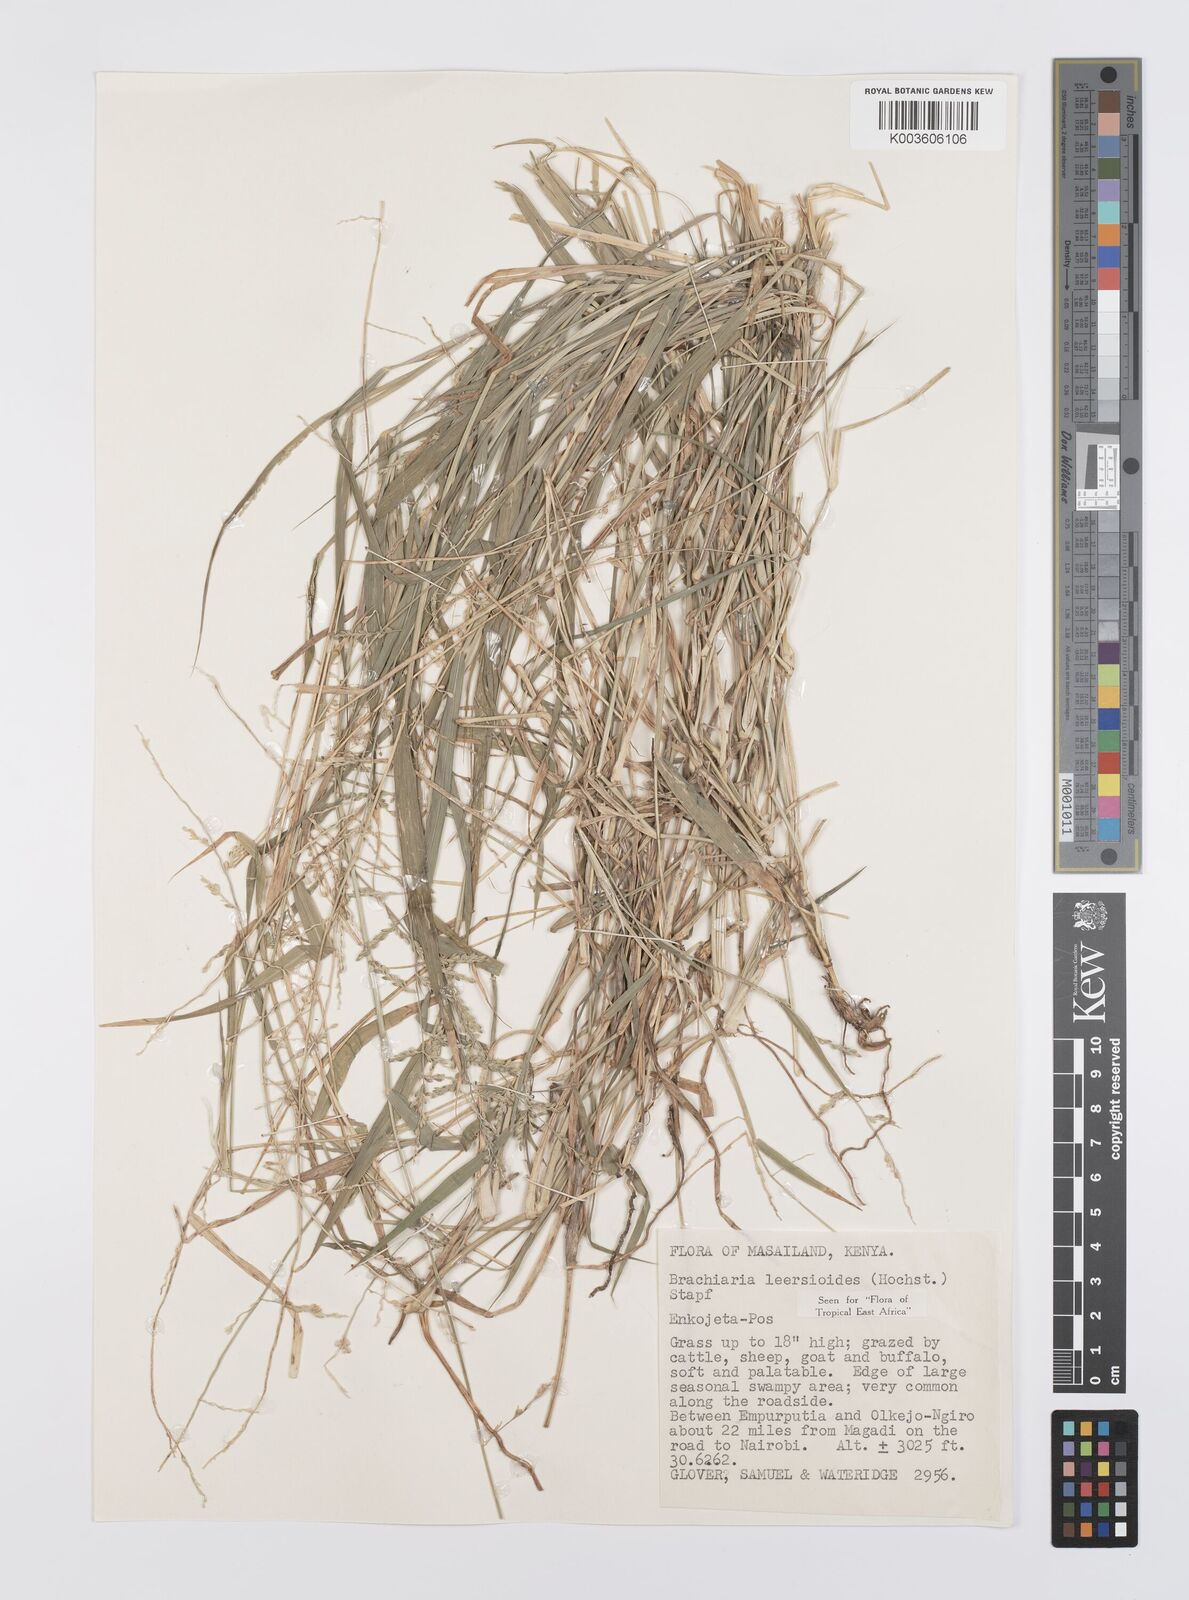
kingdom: Plantae
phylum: Tracheophyta
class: Liliopsida
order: Poales
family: Poaceae
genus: Urochloa
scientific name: Urochloa leersioides
